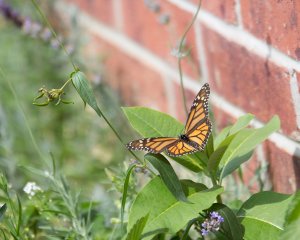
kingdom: Animalia
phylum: Arthropoda
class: Insecta
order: Lepidoptera
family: Nymphalidae
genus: Danaus
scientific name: Danaus plexippus
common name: Monarch
